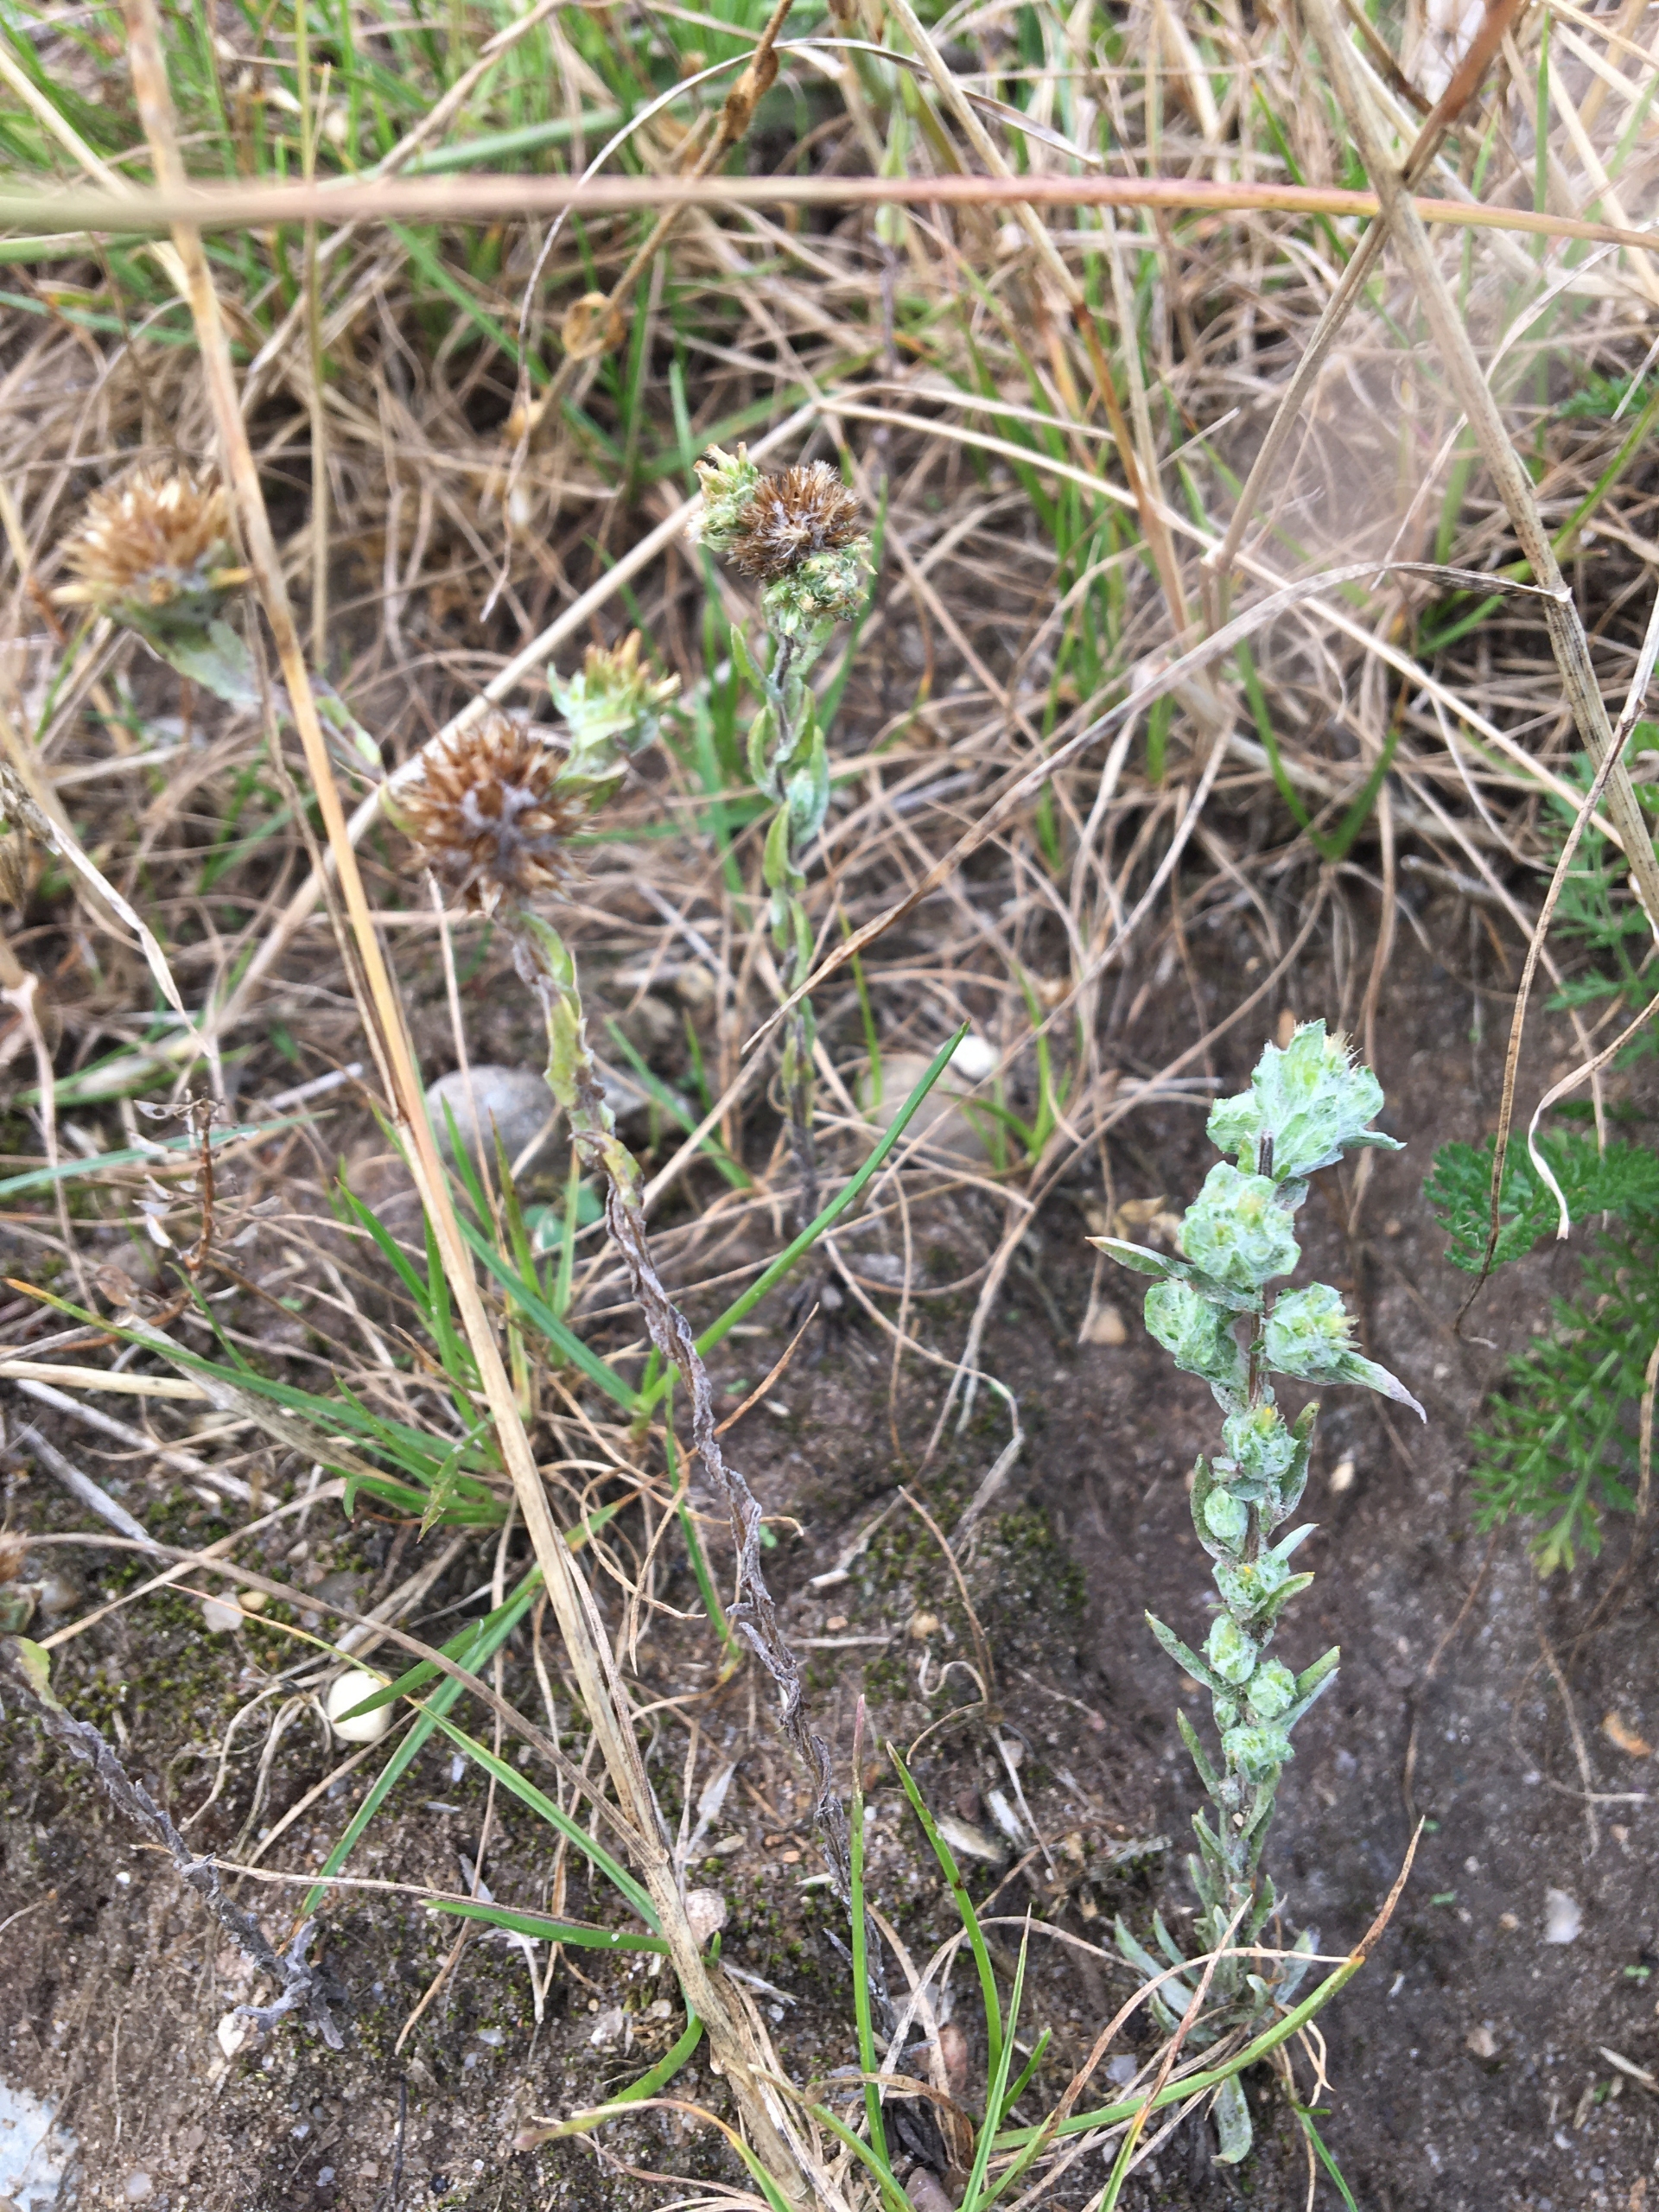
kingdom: Plantae
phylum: Tracheophyta
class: Magnoliopsida
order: Asterales
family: Asteraceae
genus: Filago
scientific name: Filago arvensis
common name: Ager-museurt
